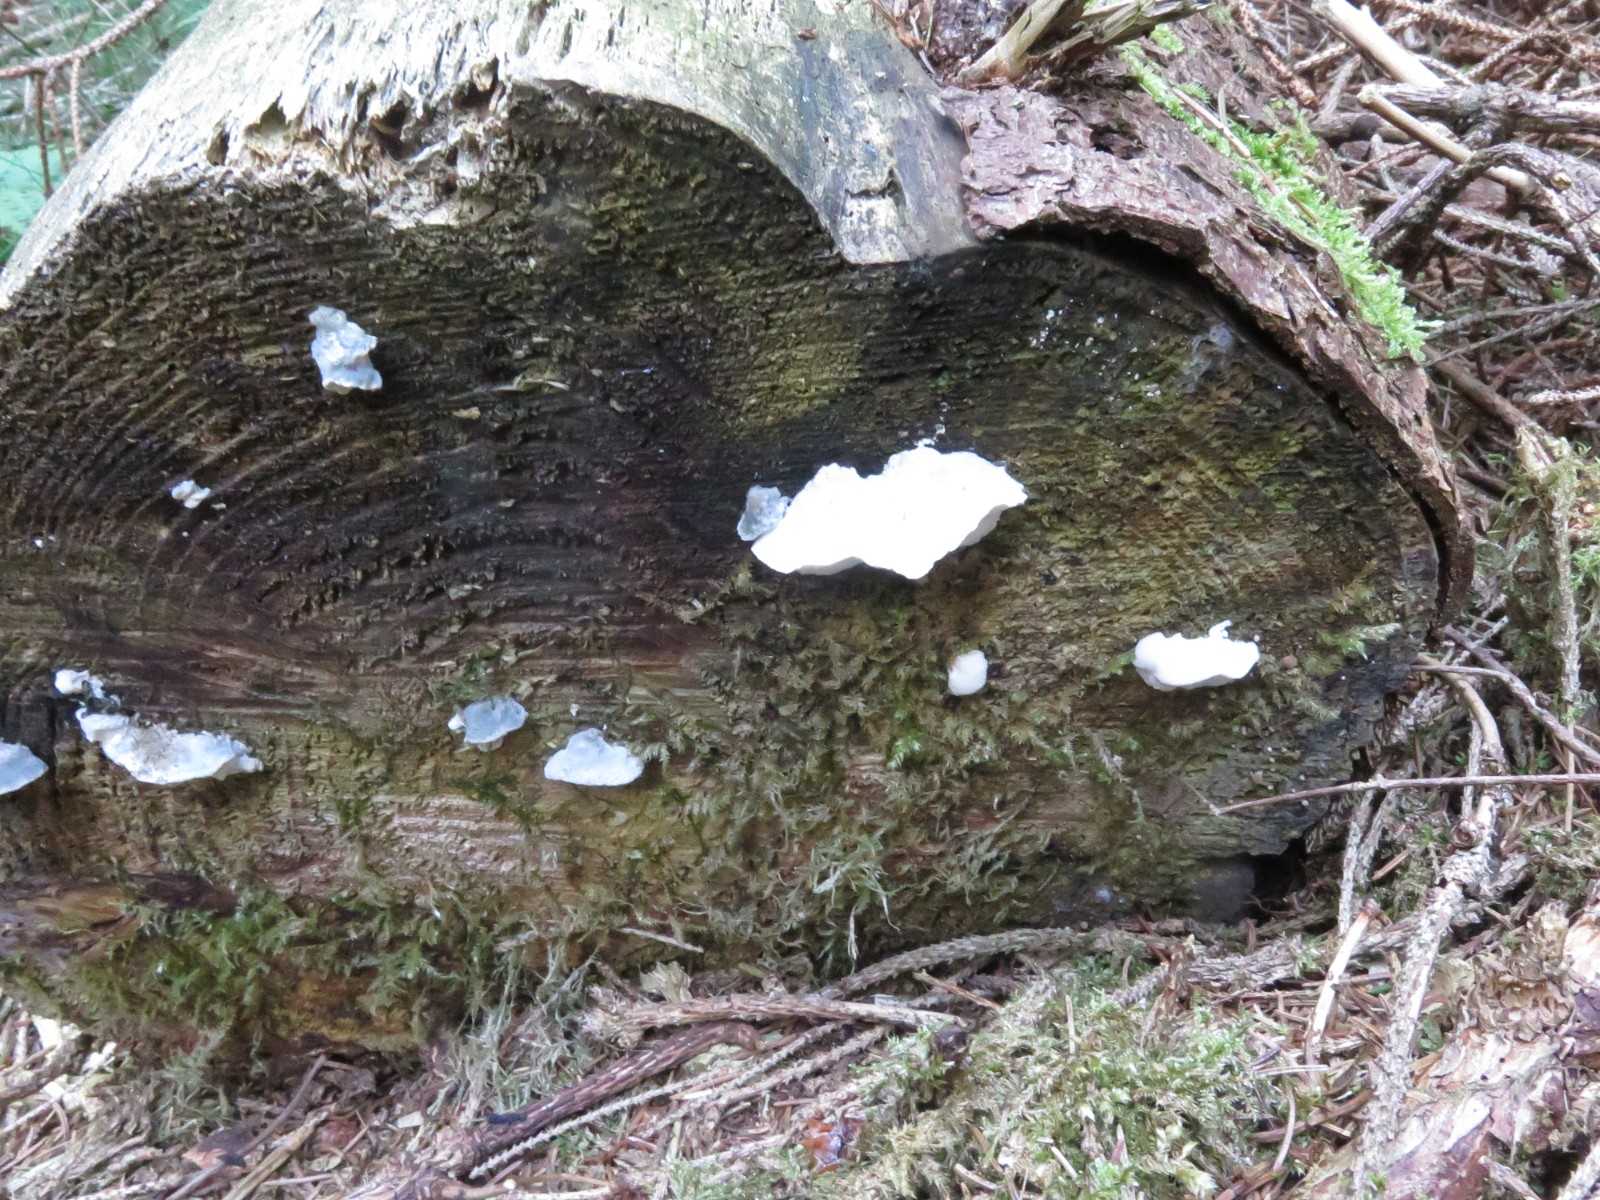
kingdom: Fungi
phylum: Basidiomycota
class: Agaricomycetes
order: Polyporales
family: Polyporaceae
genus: Cyanosporus
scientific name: Cyanosporus caesius
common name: blålig kødporesvamp
